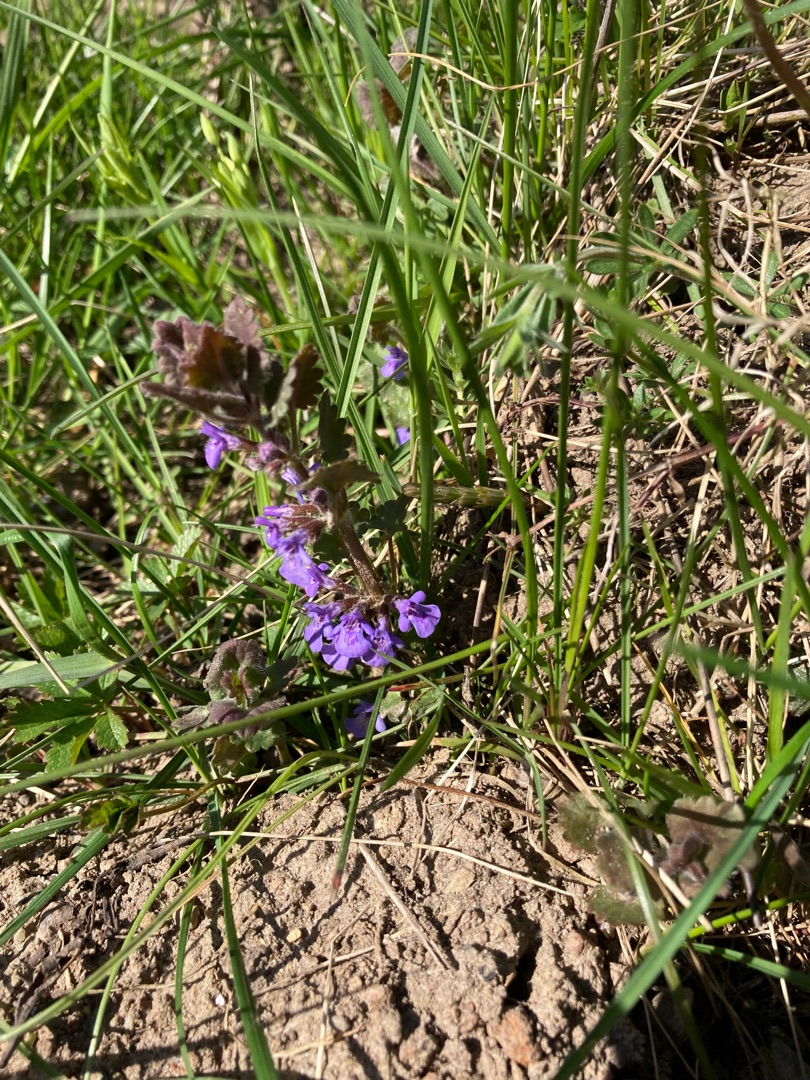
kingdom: Plantae
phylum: Tracheophyta
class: Magnoliopsida
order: Lamiales
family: Lamiaceae
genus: Glechoma
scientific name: Glechoma hederacea
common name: Korsknap
